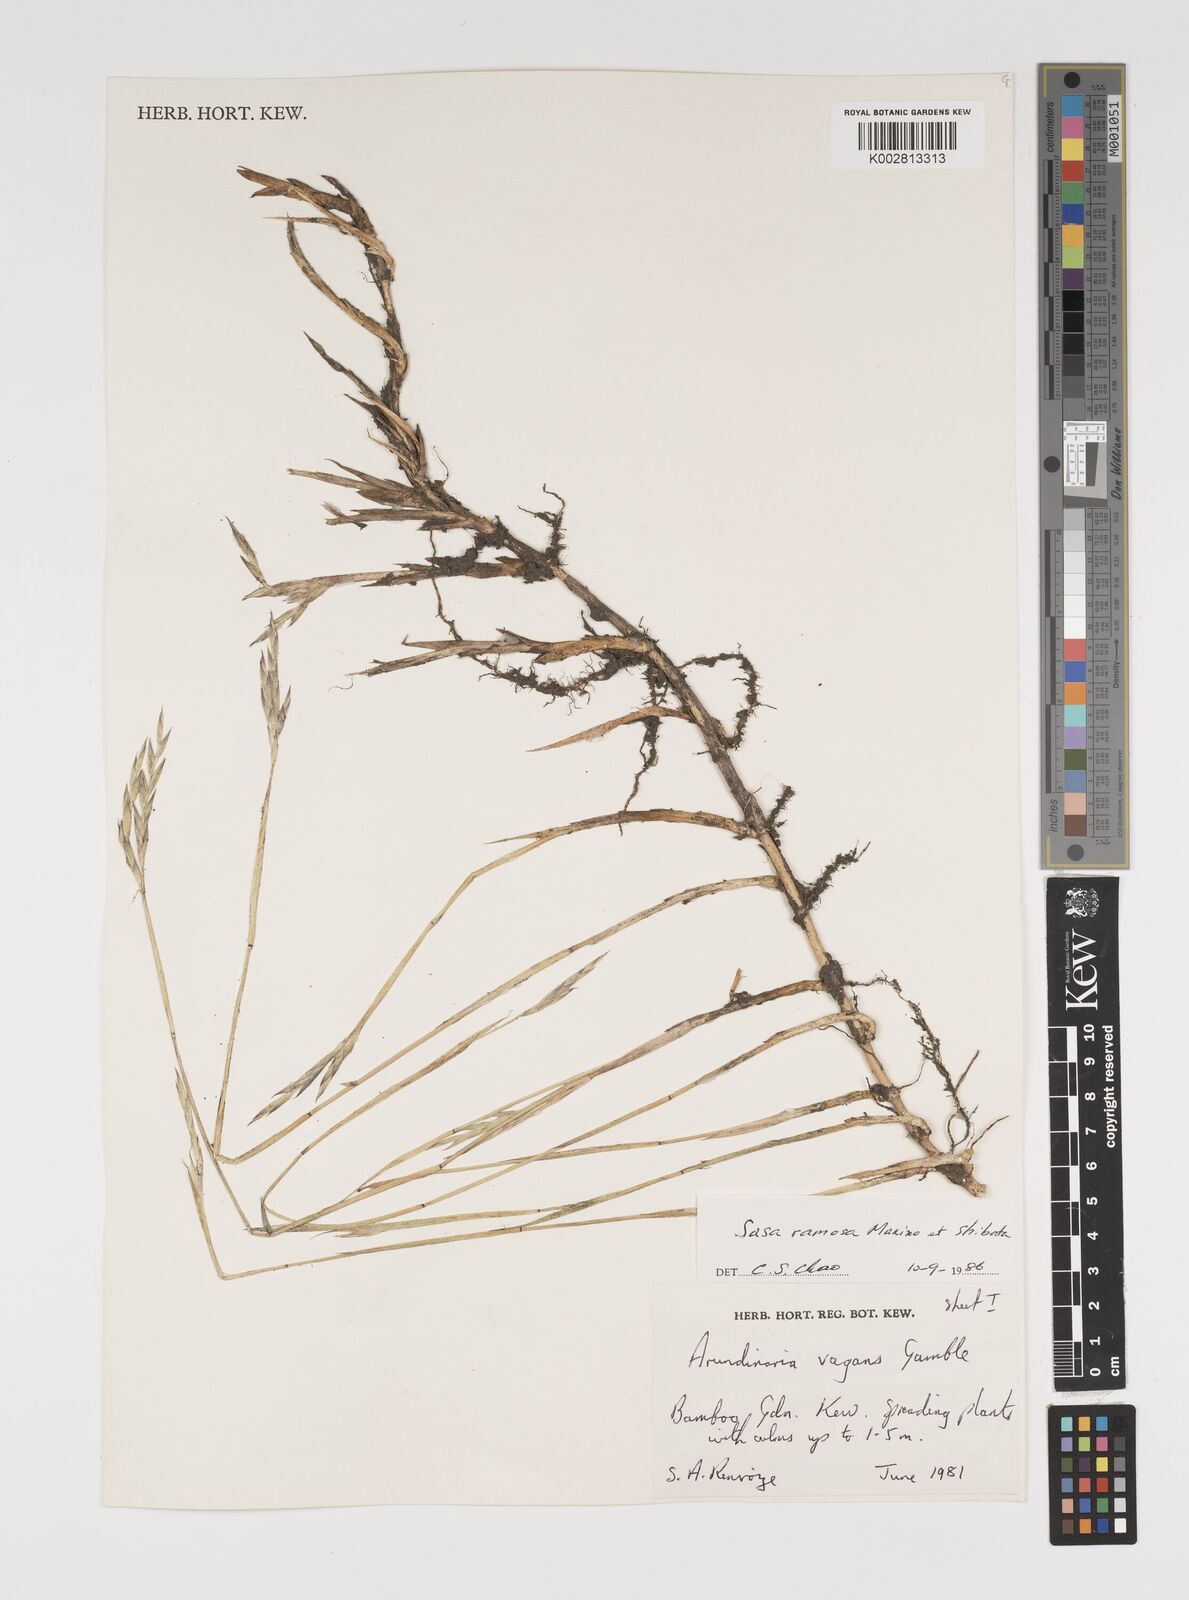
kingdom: Plantae
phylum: Tracheophyta
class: Liliopsida
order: Poales
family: Poaceae
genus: Sasaella
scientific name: Sasaella ramosa
